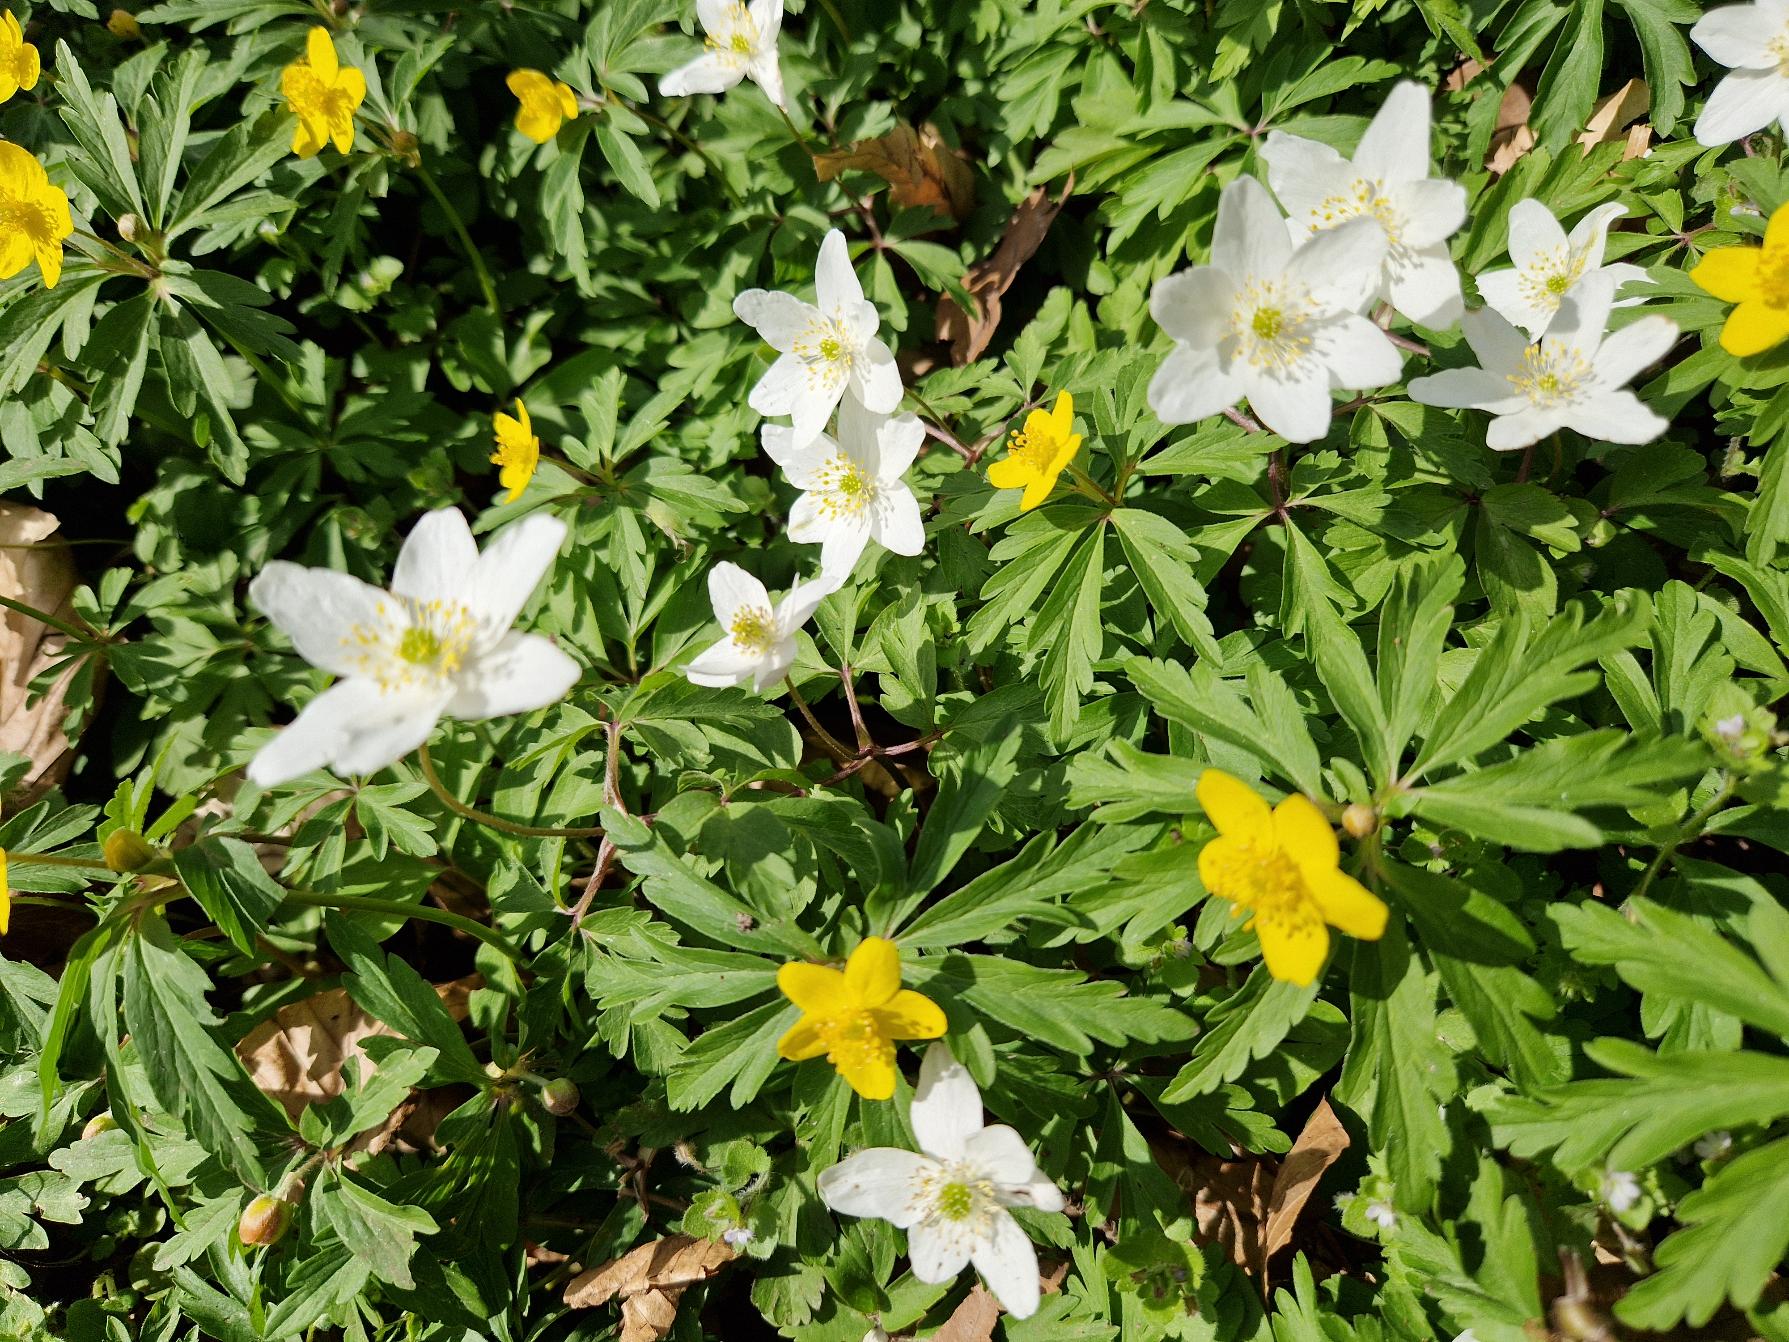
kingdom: Plantae
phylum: Tracheophyta
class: Magnoliopsida
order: Ranunculales
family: Ranunculaceae
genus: Anemone
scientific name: Anemone nemorosa
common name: Hvid anemone
